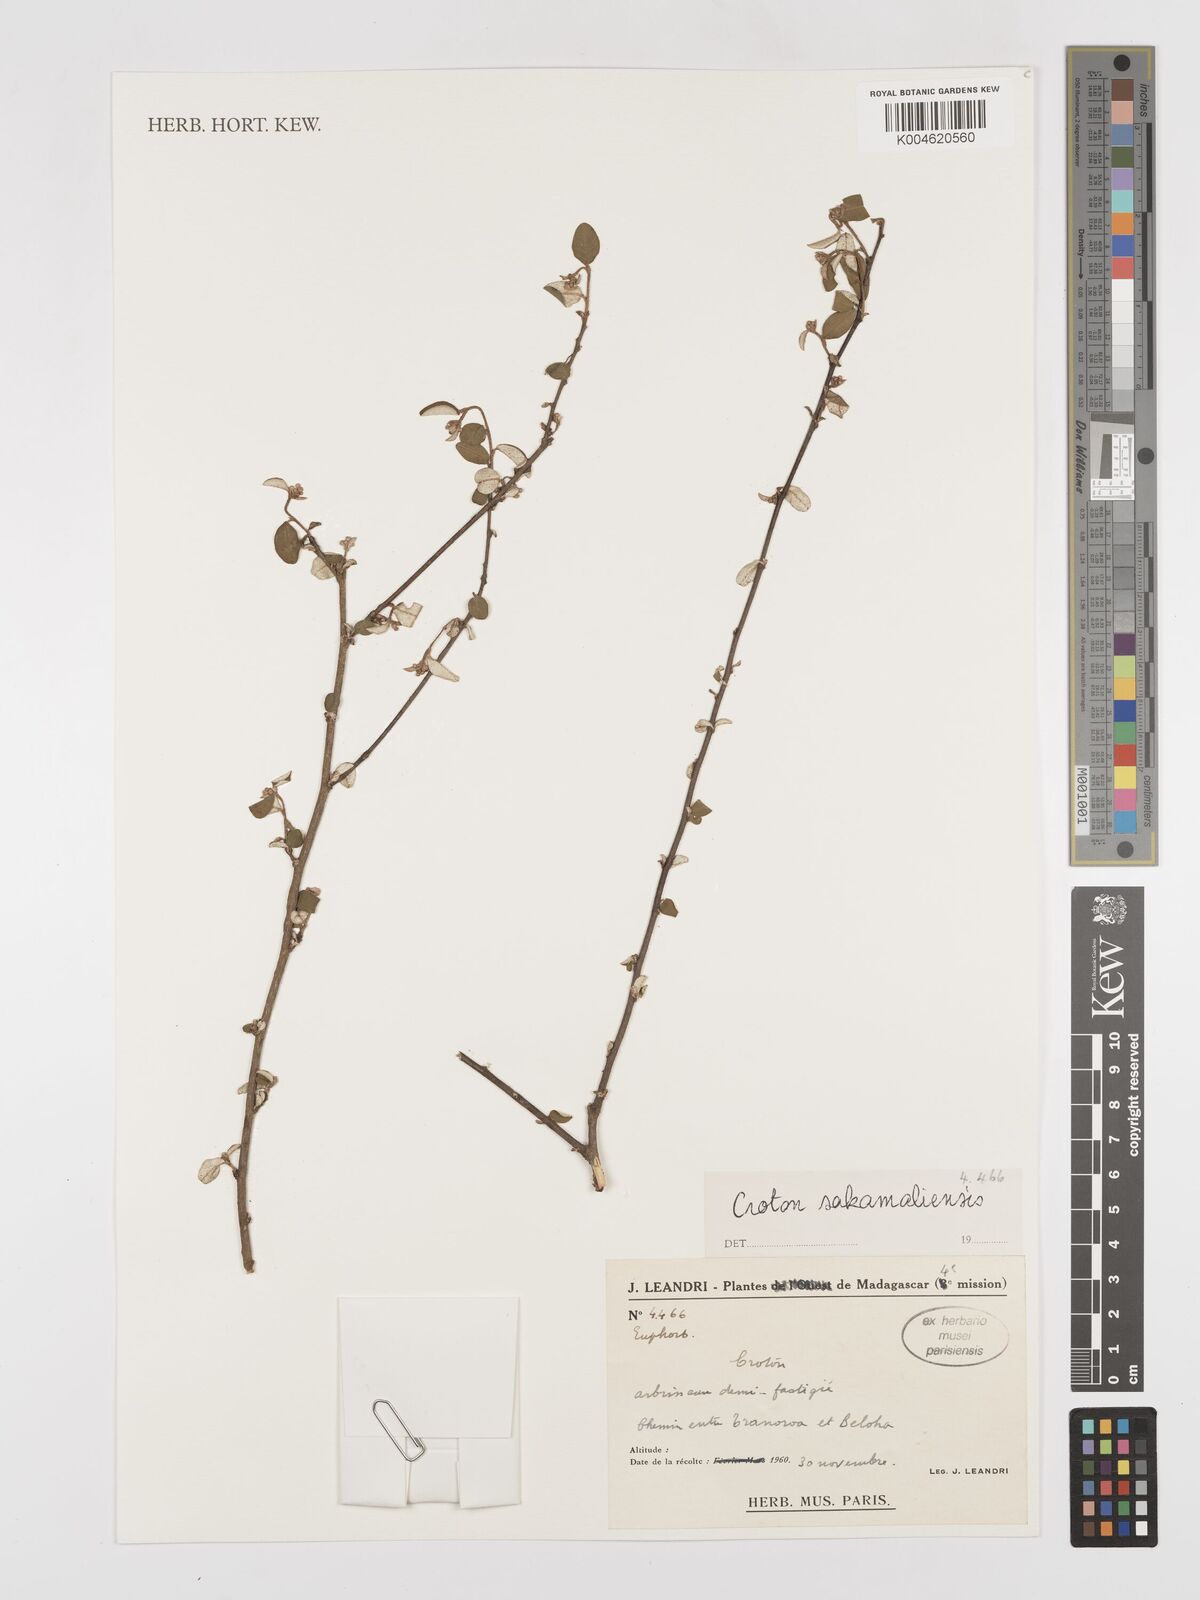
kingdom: Plantae
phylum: Tracheophyta
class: Magnoliopsida
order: Malpighiales
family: Euphorbiaceae
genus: Croton
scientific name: Croton sakamaliensis
